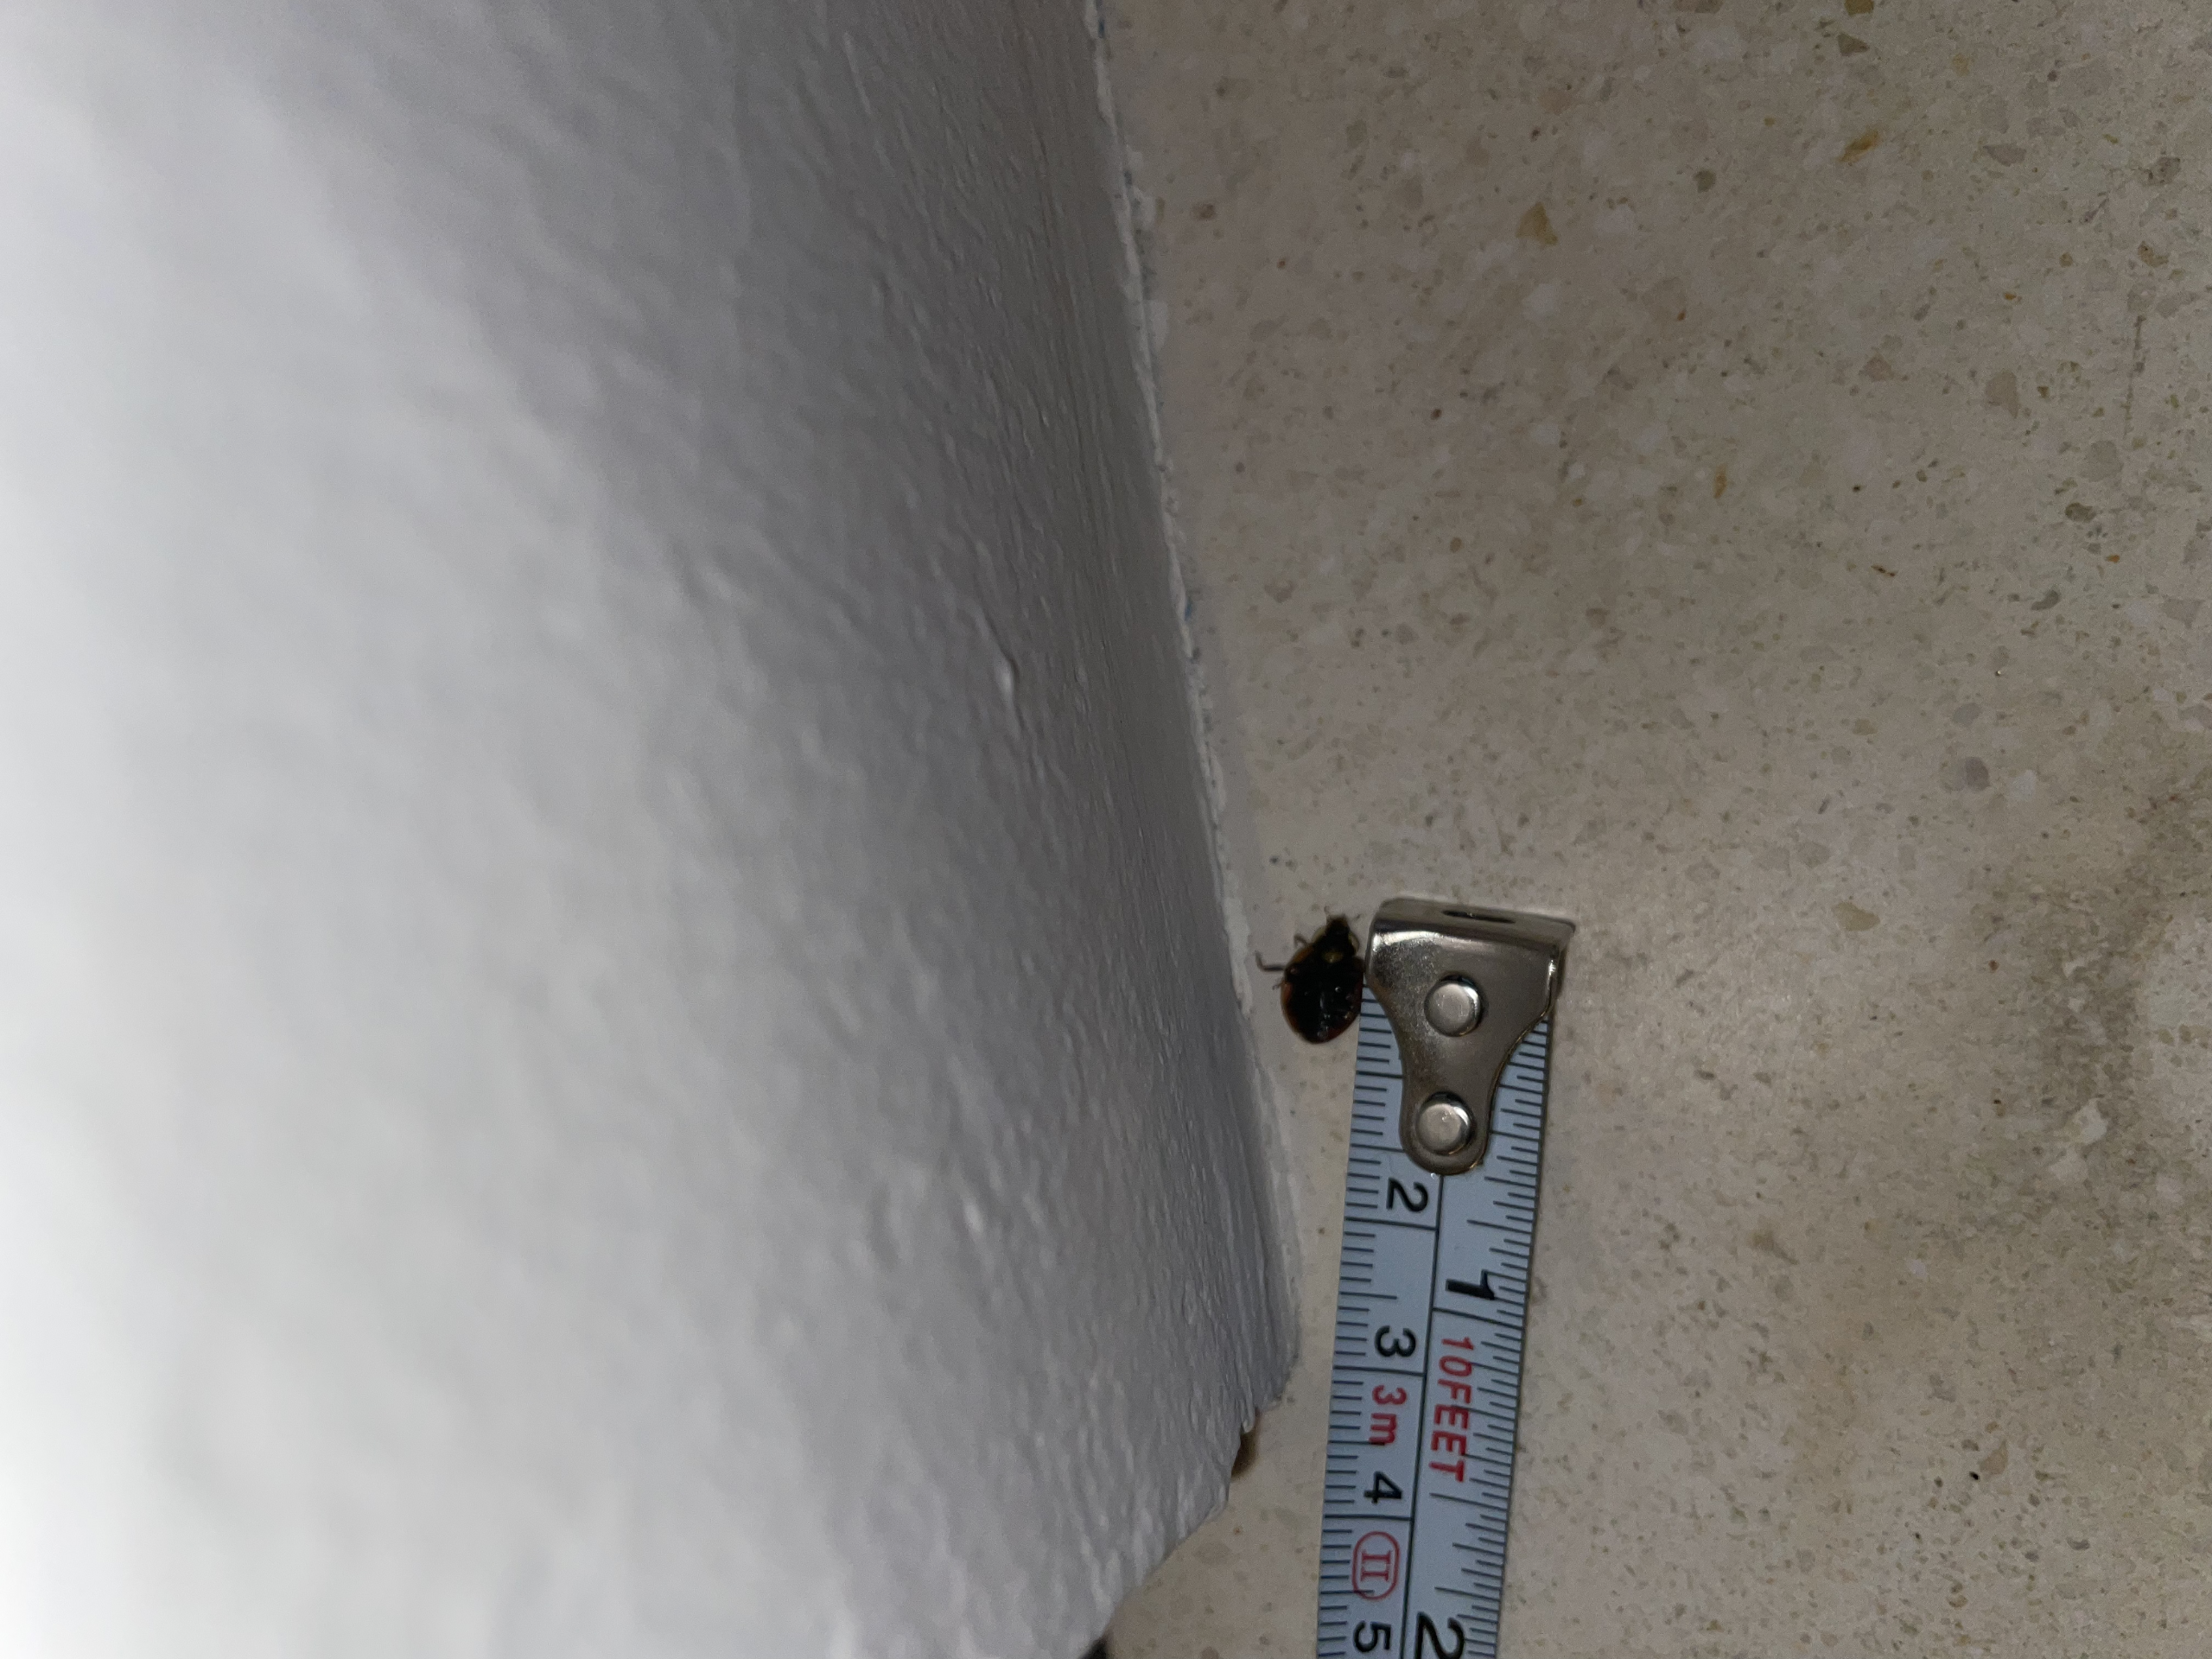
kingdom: Animalia
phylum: Arthropoda
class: Insecta
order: Coleoptera
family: Coccinellidae
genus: Harmonia
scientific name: Harmonia axyridis
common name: Harlekinmariehøne
